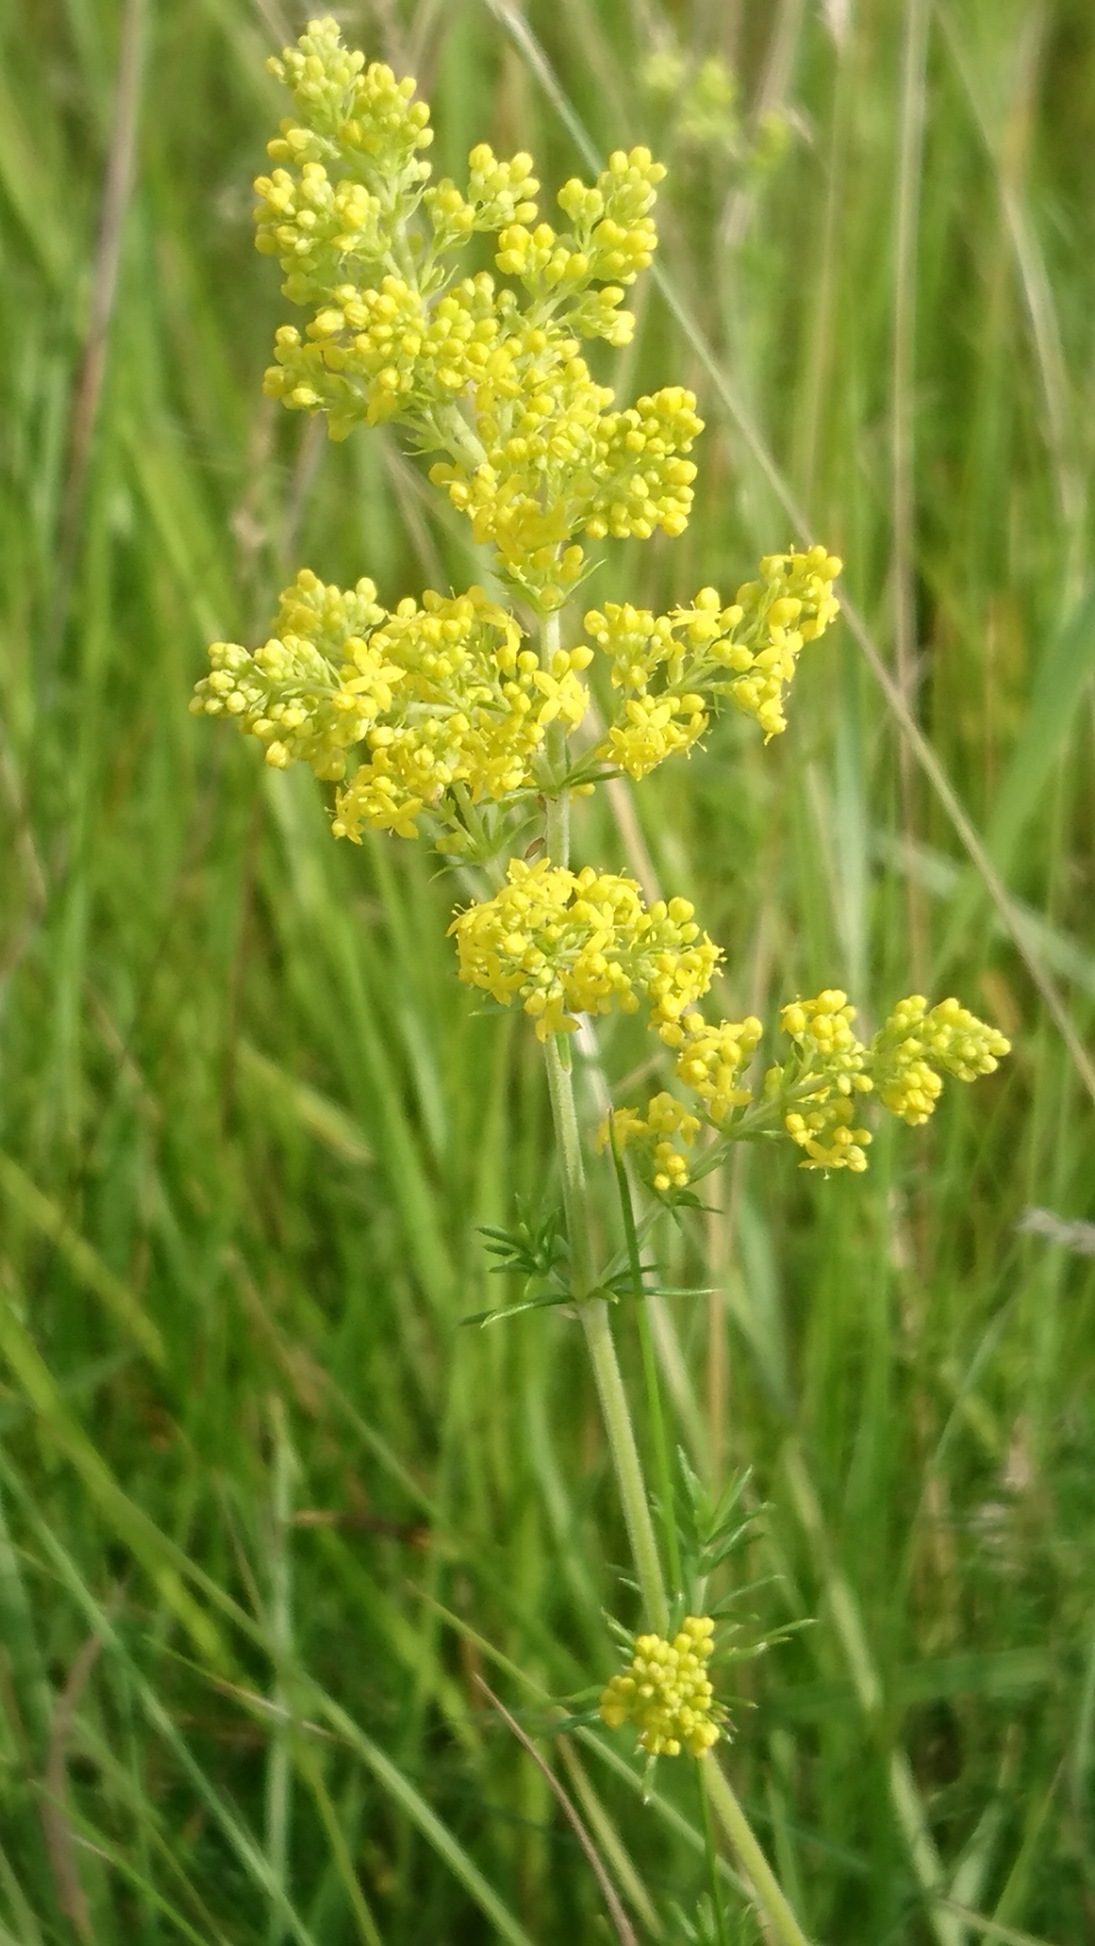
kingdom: Plantae
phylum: Tracheophyta
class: Magnoliopsida
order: Gentianales
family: Rubiaceae
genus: Galium
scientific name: Galium verum
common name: Gul snerre
